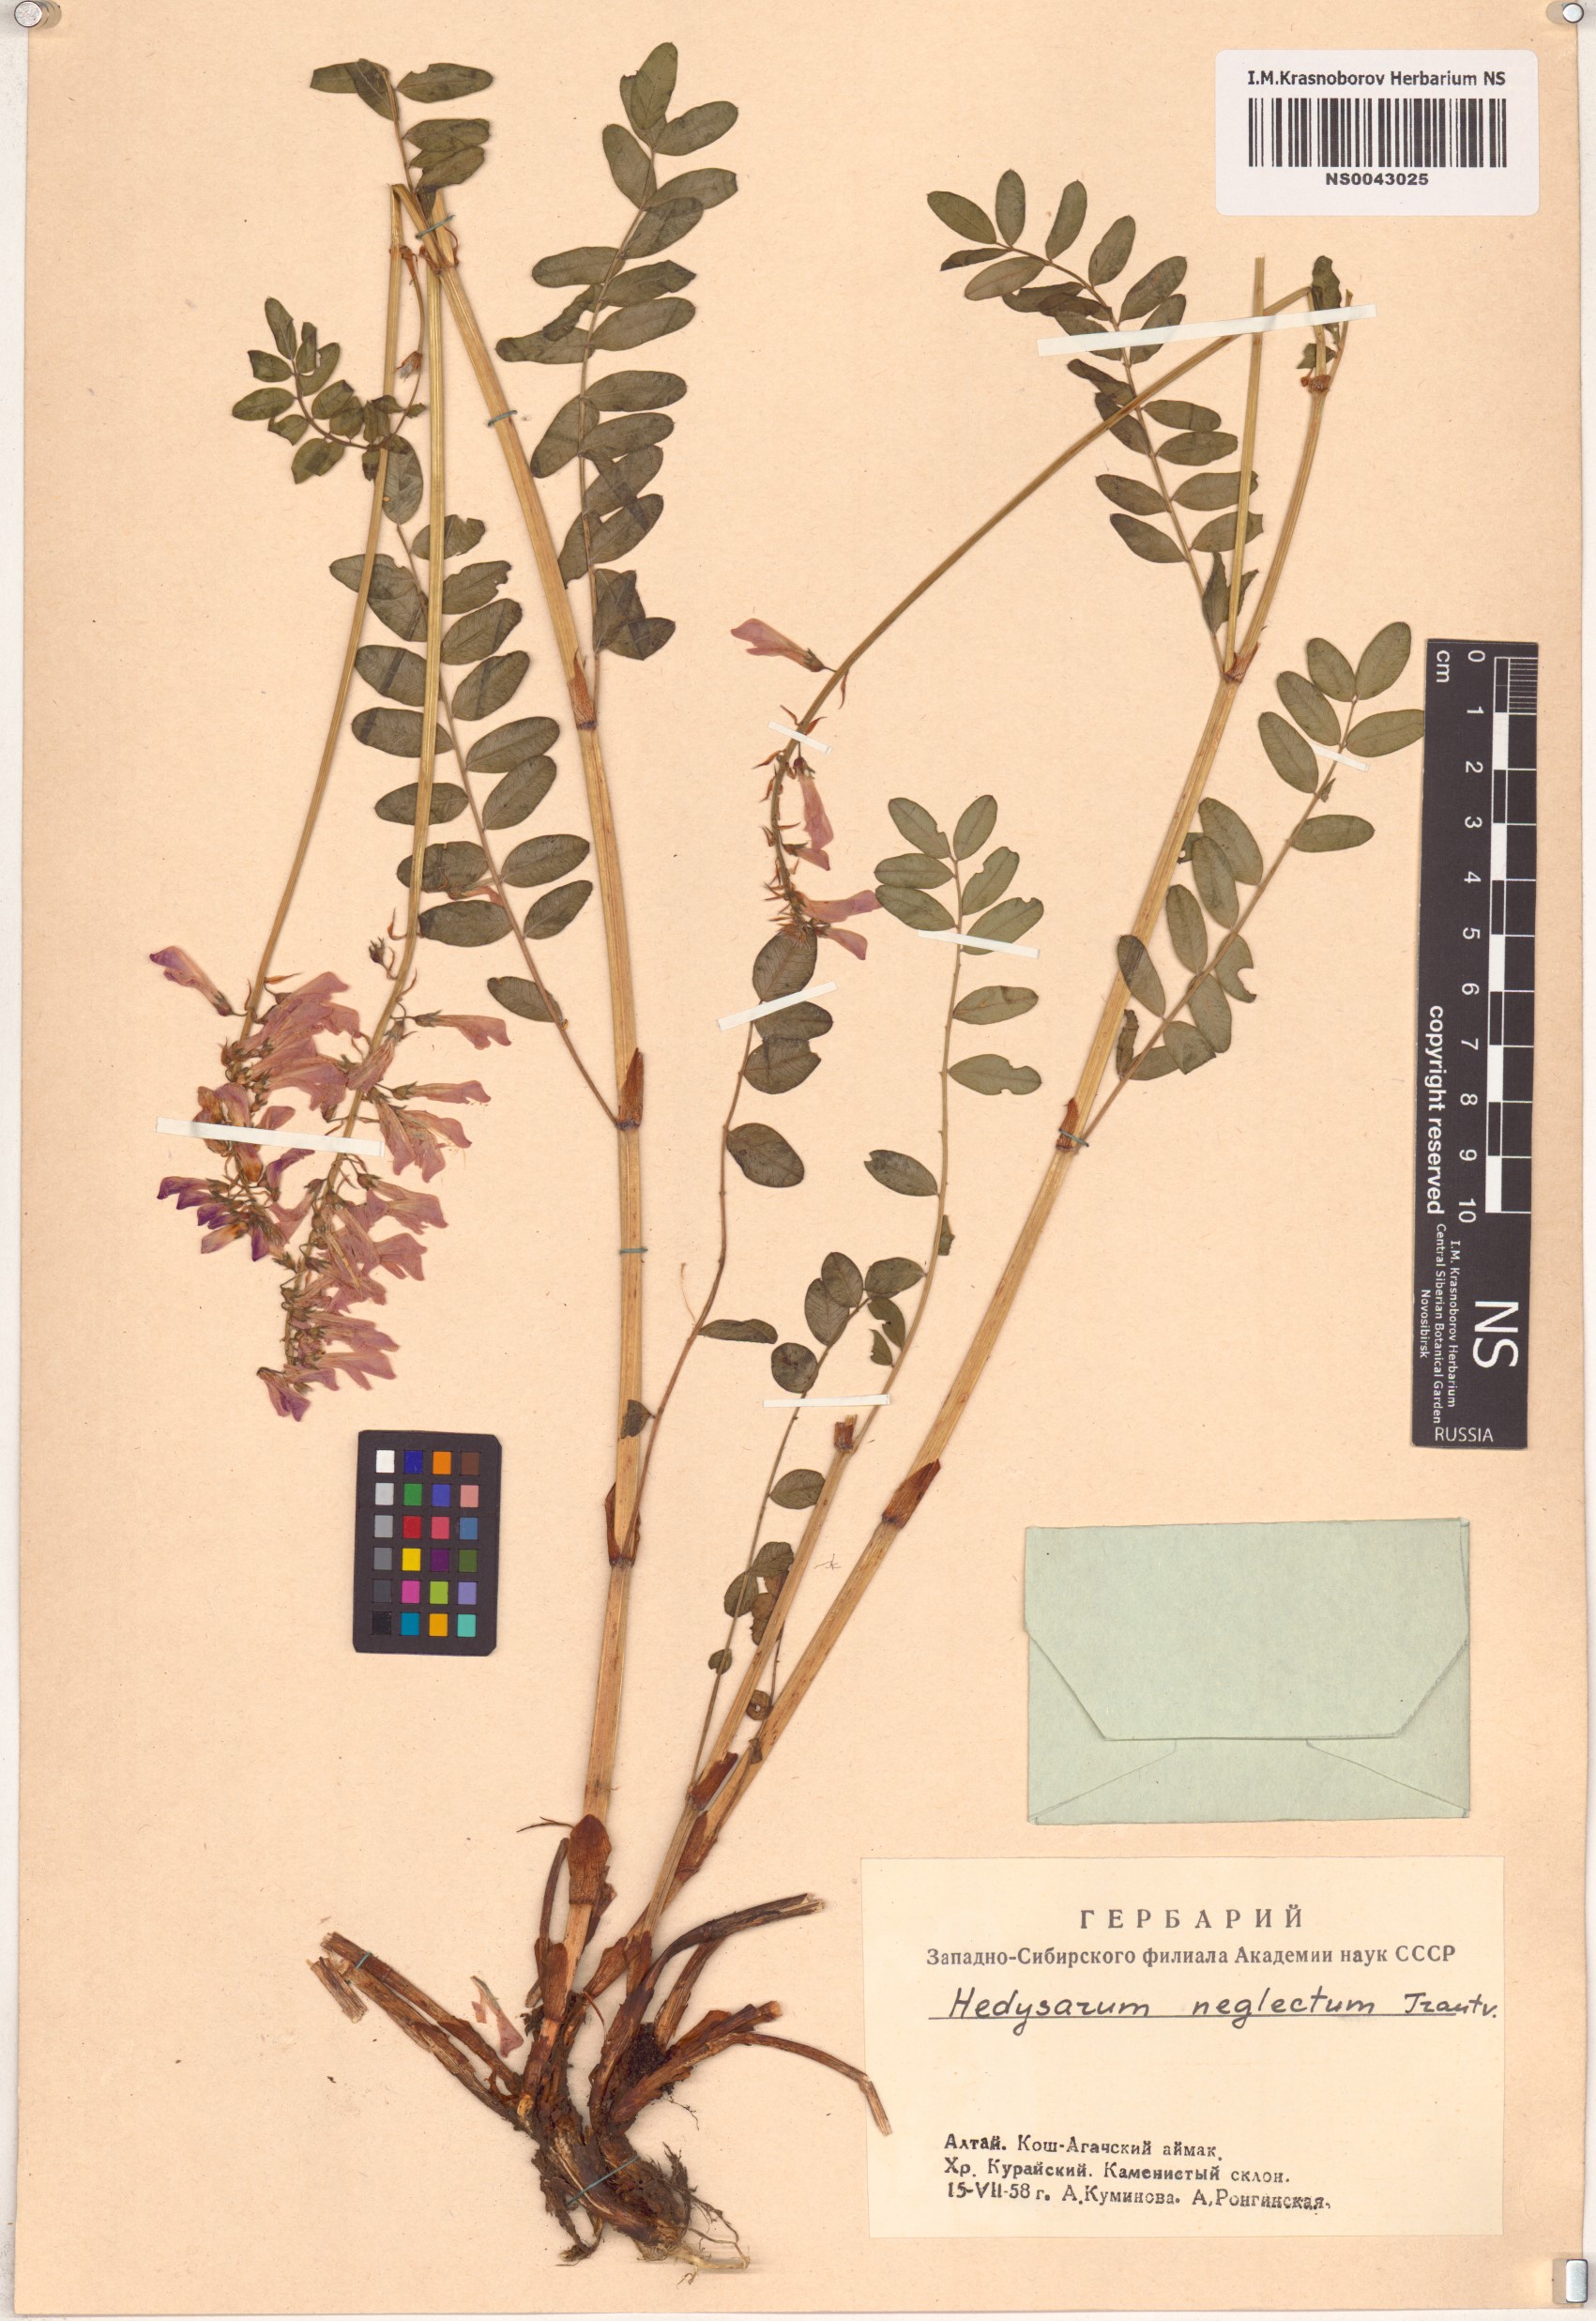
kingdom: Plantae
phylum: Tracheophyta
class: Magnoliopsida
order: Fabales
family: Fabaceae
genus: Hedysarum
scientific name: Hedysarum neglectum
